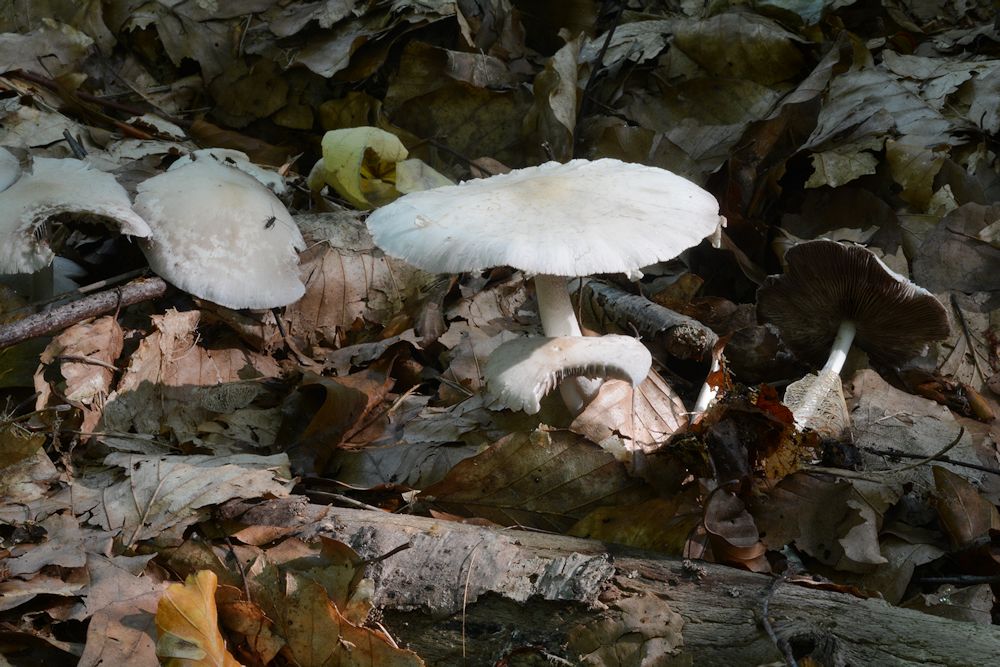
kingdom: Fungi
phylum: Basidiomycota
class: Agaricomycetes
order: Agaricales
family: Psathyrellaceae
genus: Candolleomyces
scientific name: Candolleomyces candolleanus
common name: Candolles mørkhat
